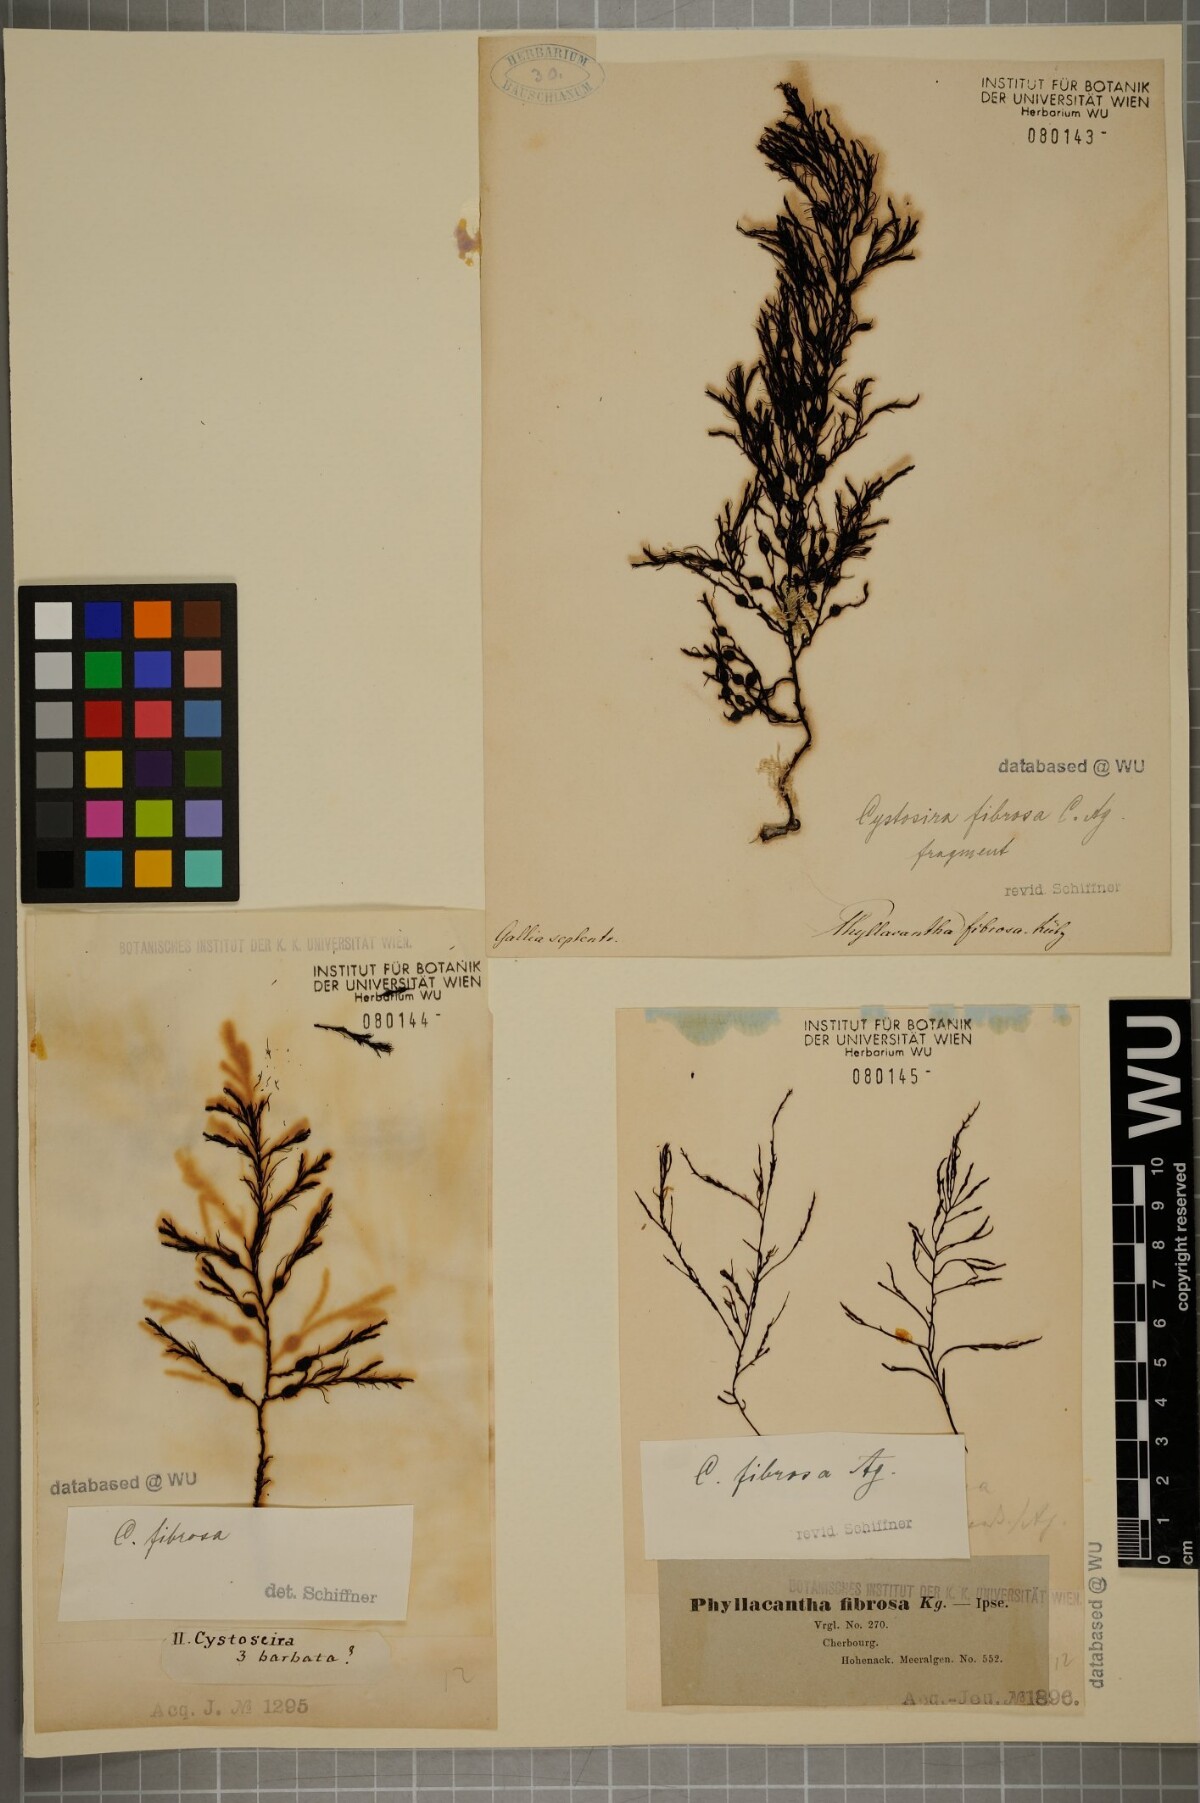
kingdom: Chromista
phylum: Ochrophyta
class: Phaeophyceae
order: Fucales
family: Sargassaceae
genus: Cystoseira
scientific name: Cystoseira Gongolaria baccata
